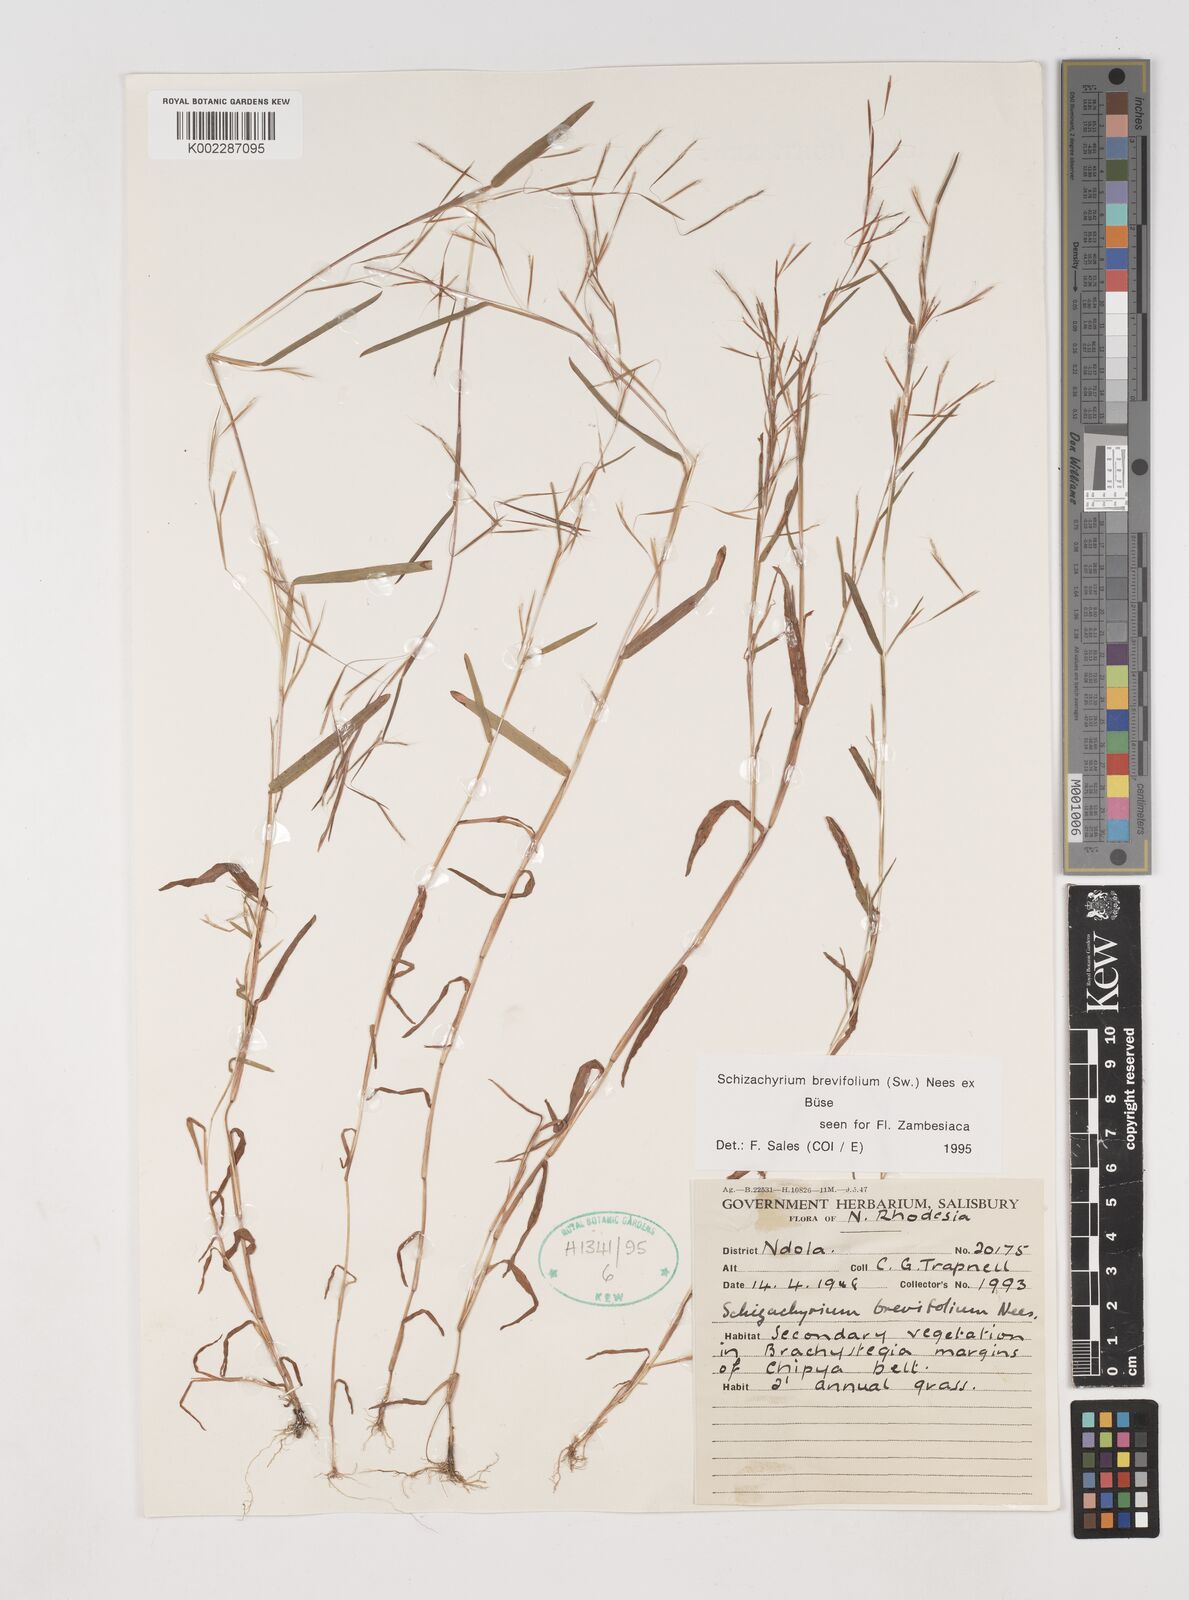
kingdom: Plantae
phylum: Tracheophyta
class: Liliopsida
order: Poales
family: Poaceae
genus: Schizachyrium
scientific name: Schizachyrium brevifolium
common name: Serillo dulce
